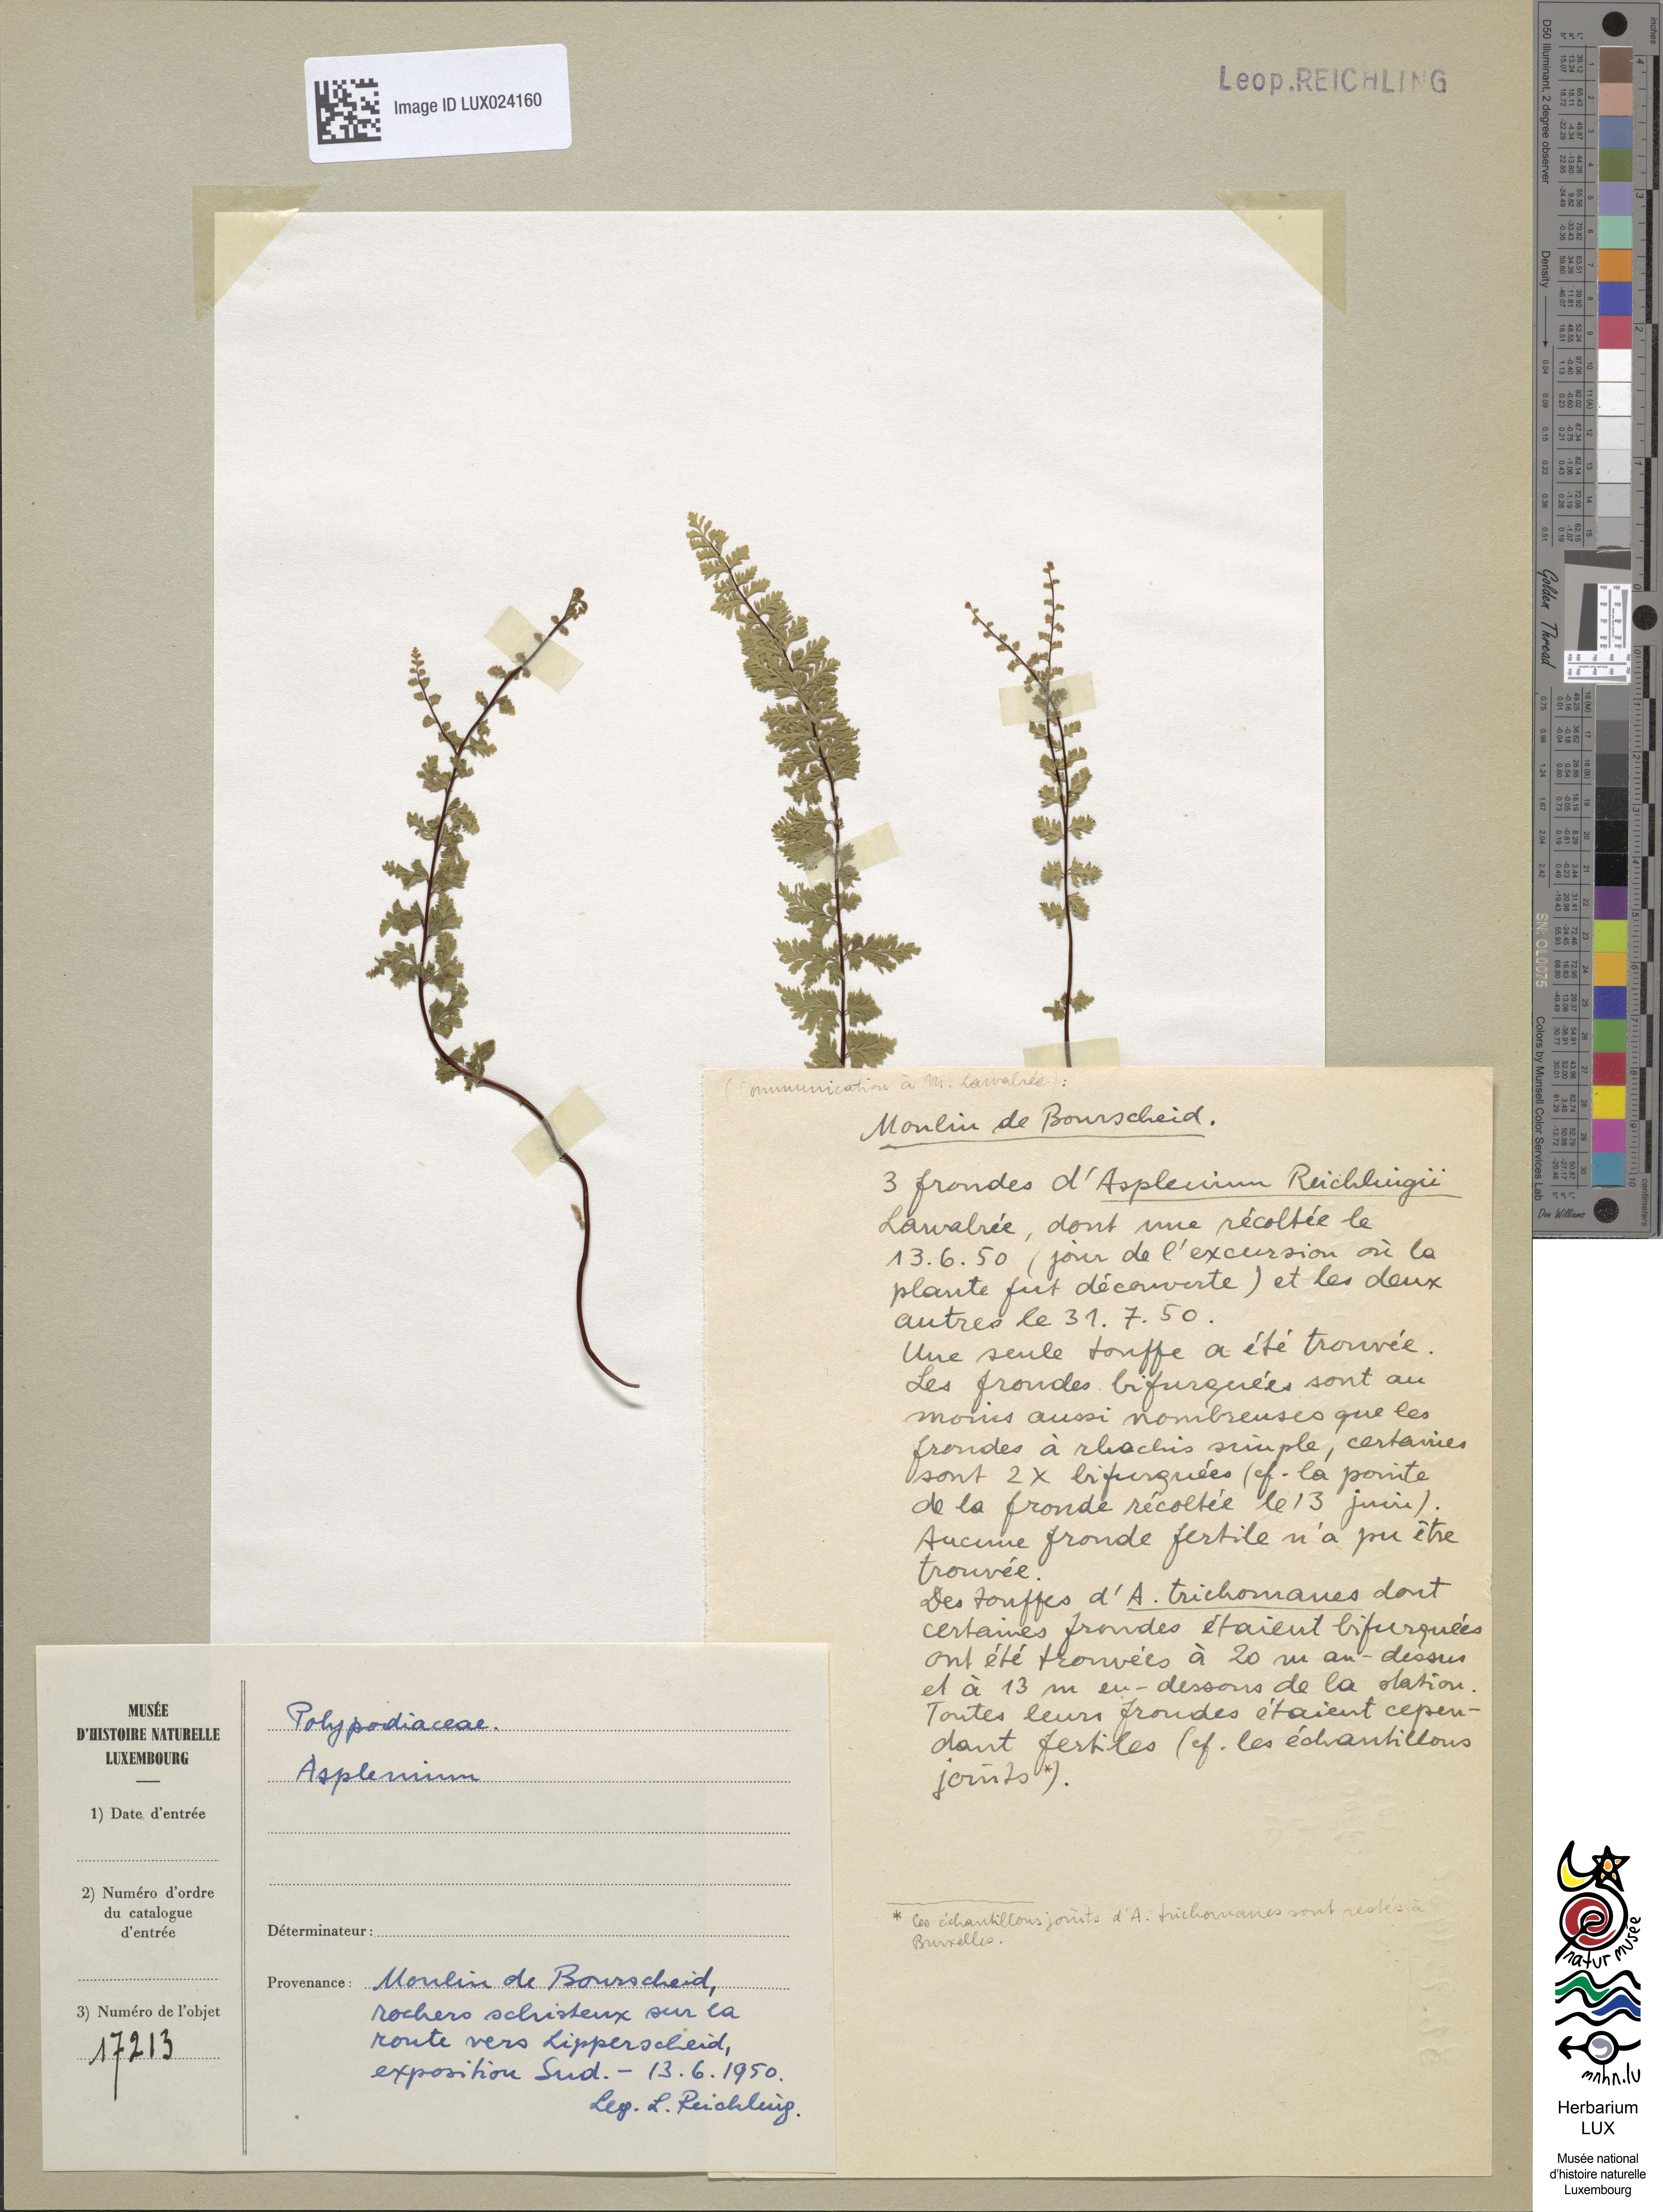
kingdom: Plantae
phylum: Tracheophyta
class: Polypodiopsida
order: Polypodiales
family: Aspleniaceae
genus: Asplenium
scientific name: Asplenium reichlingii
